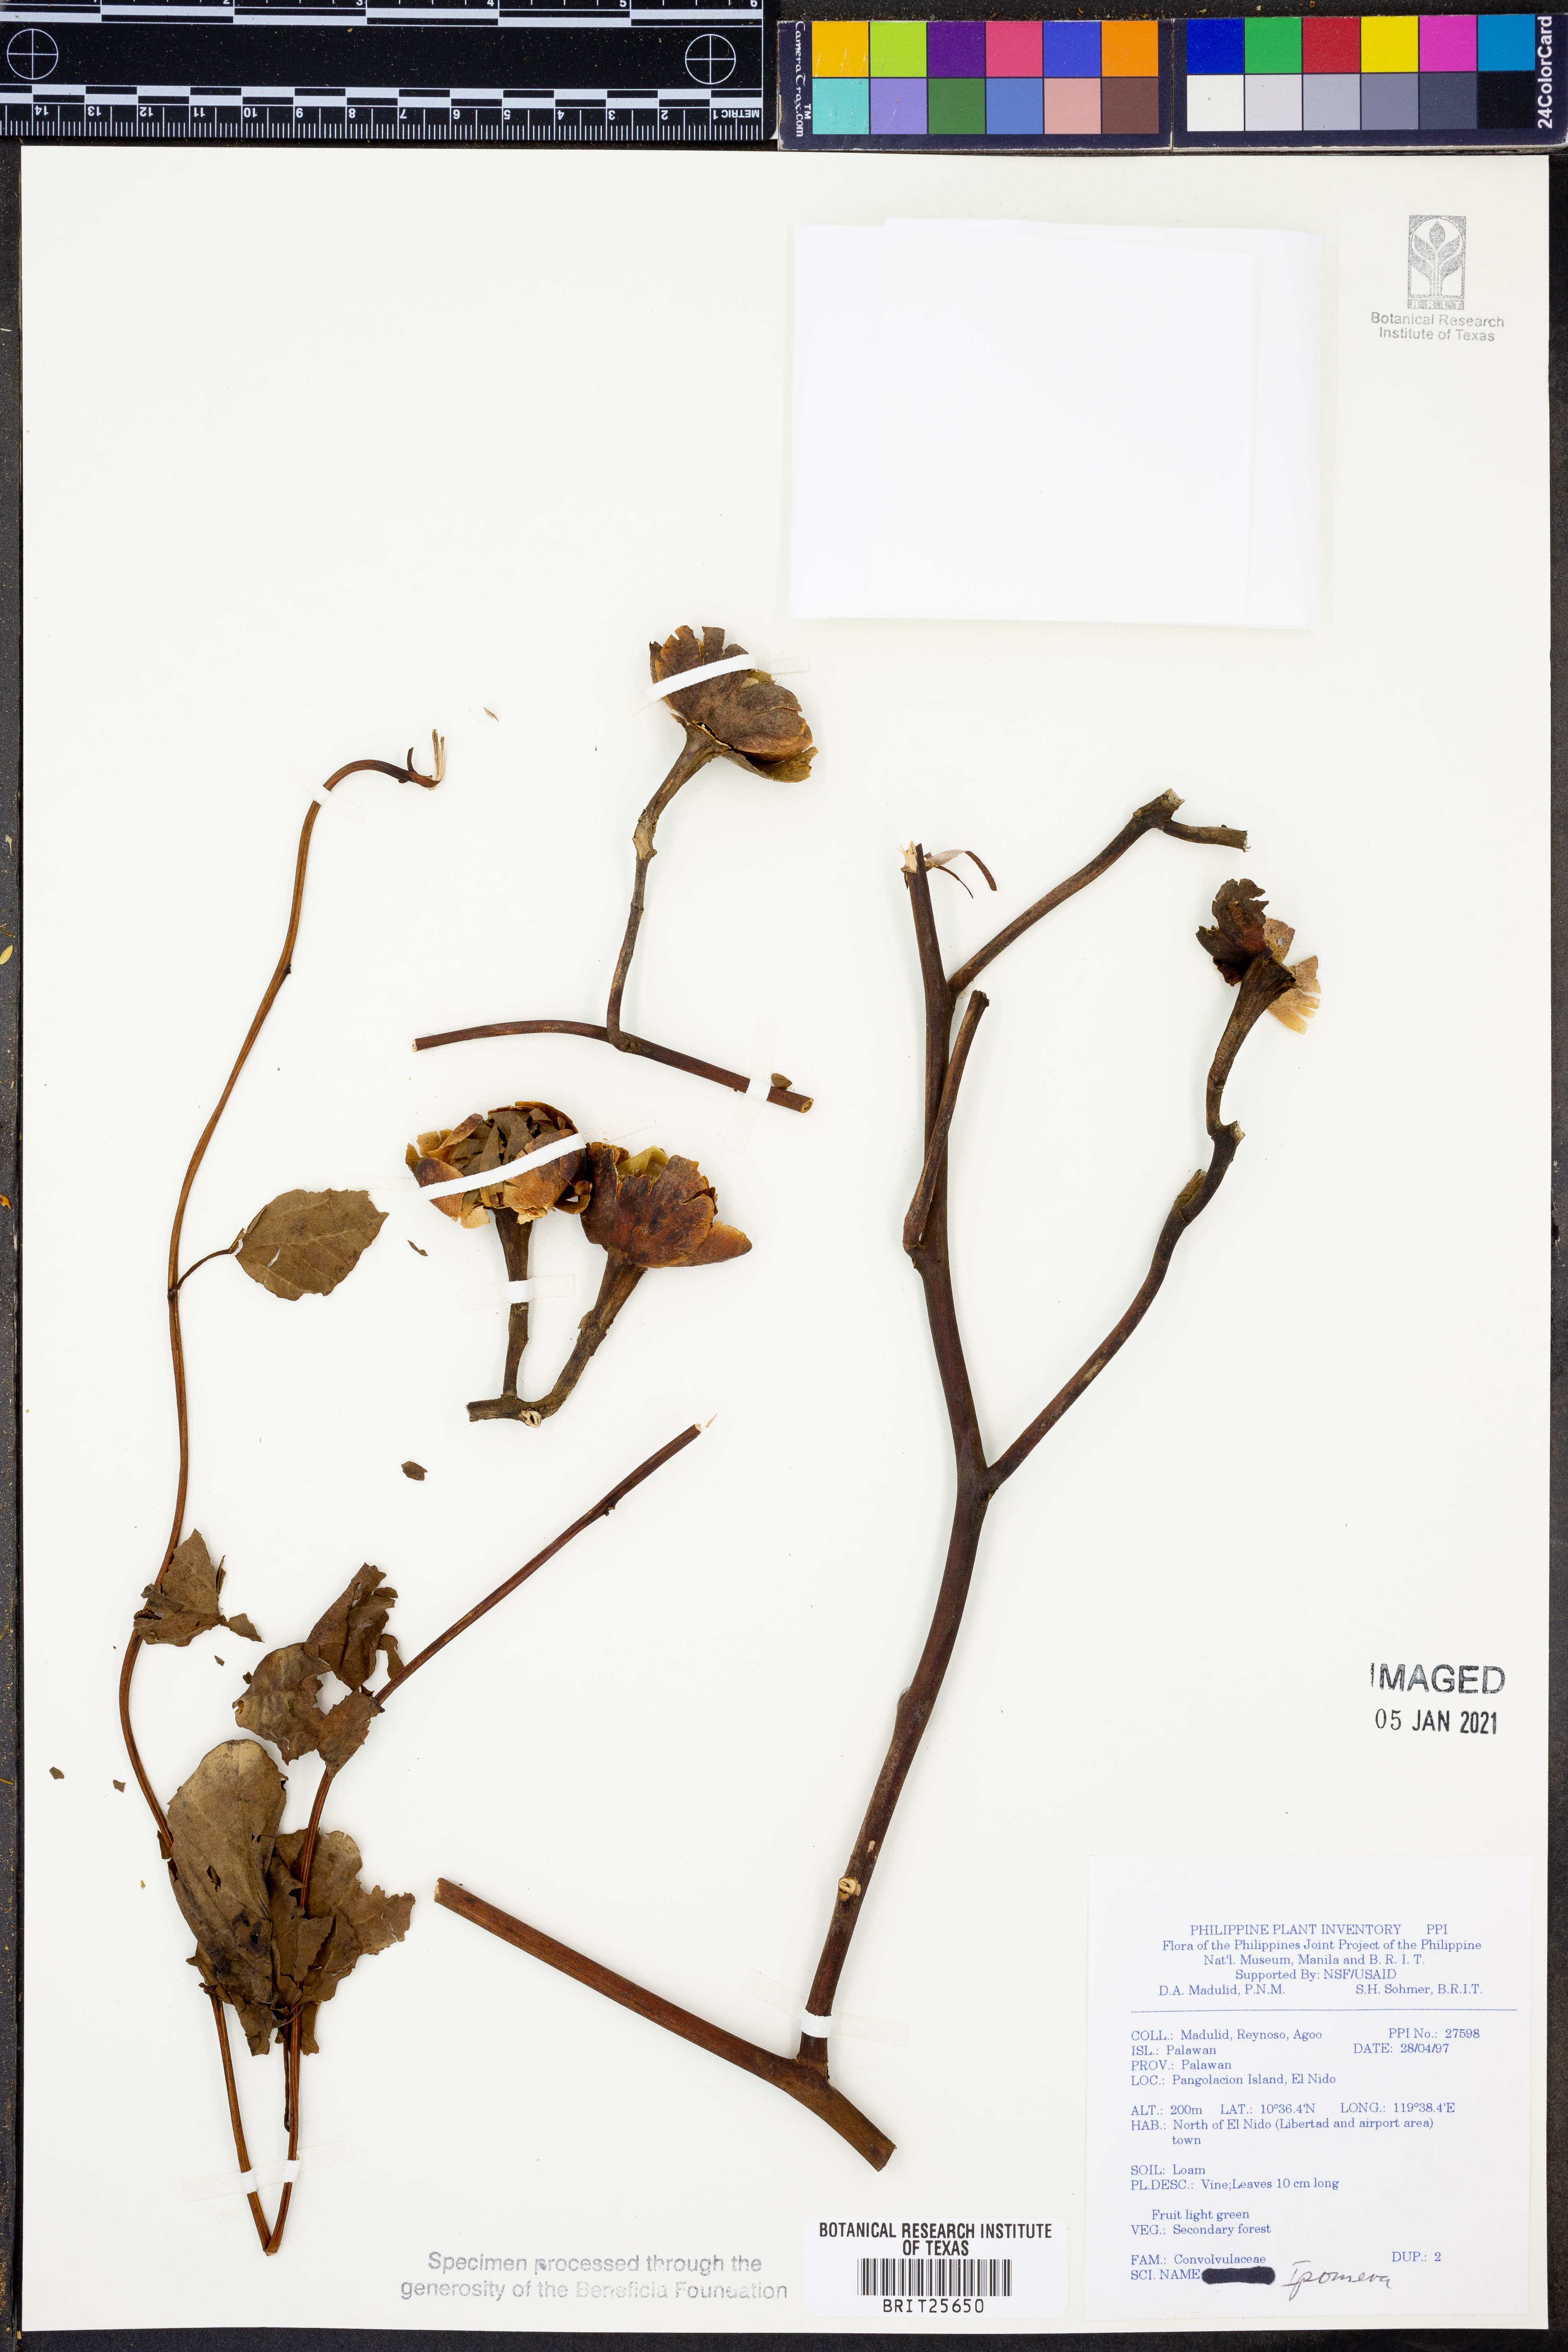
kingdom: Plantae
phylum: Tracheophyta
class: Magnoliopsida
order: Solanales
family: Convolvulaceae
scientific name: Convolvulaceae
